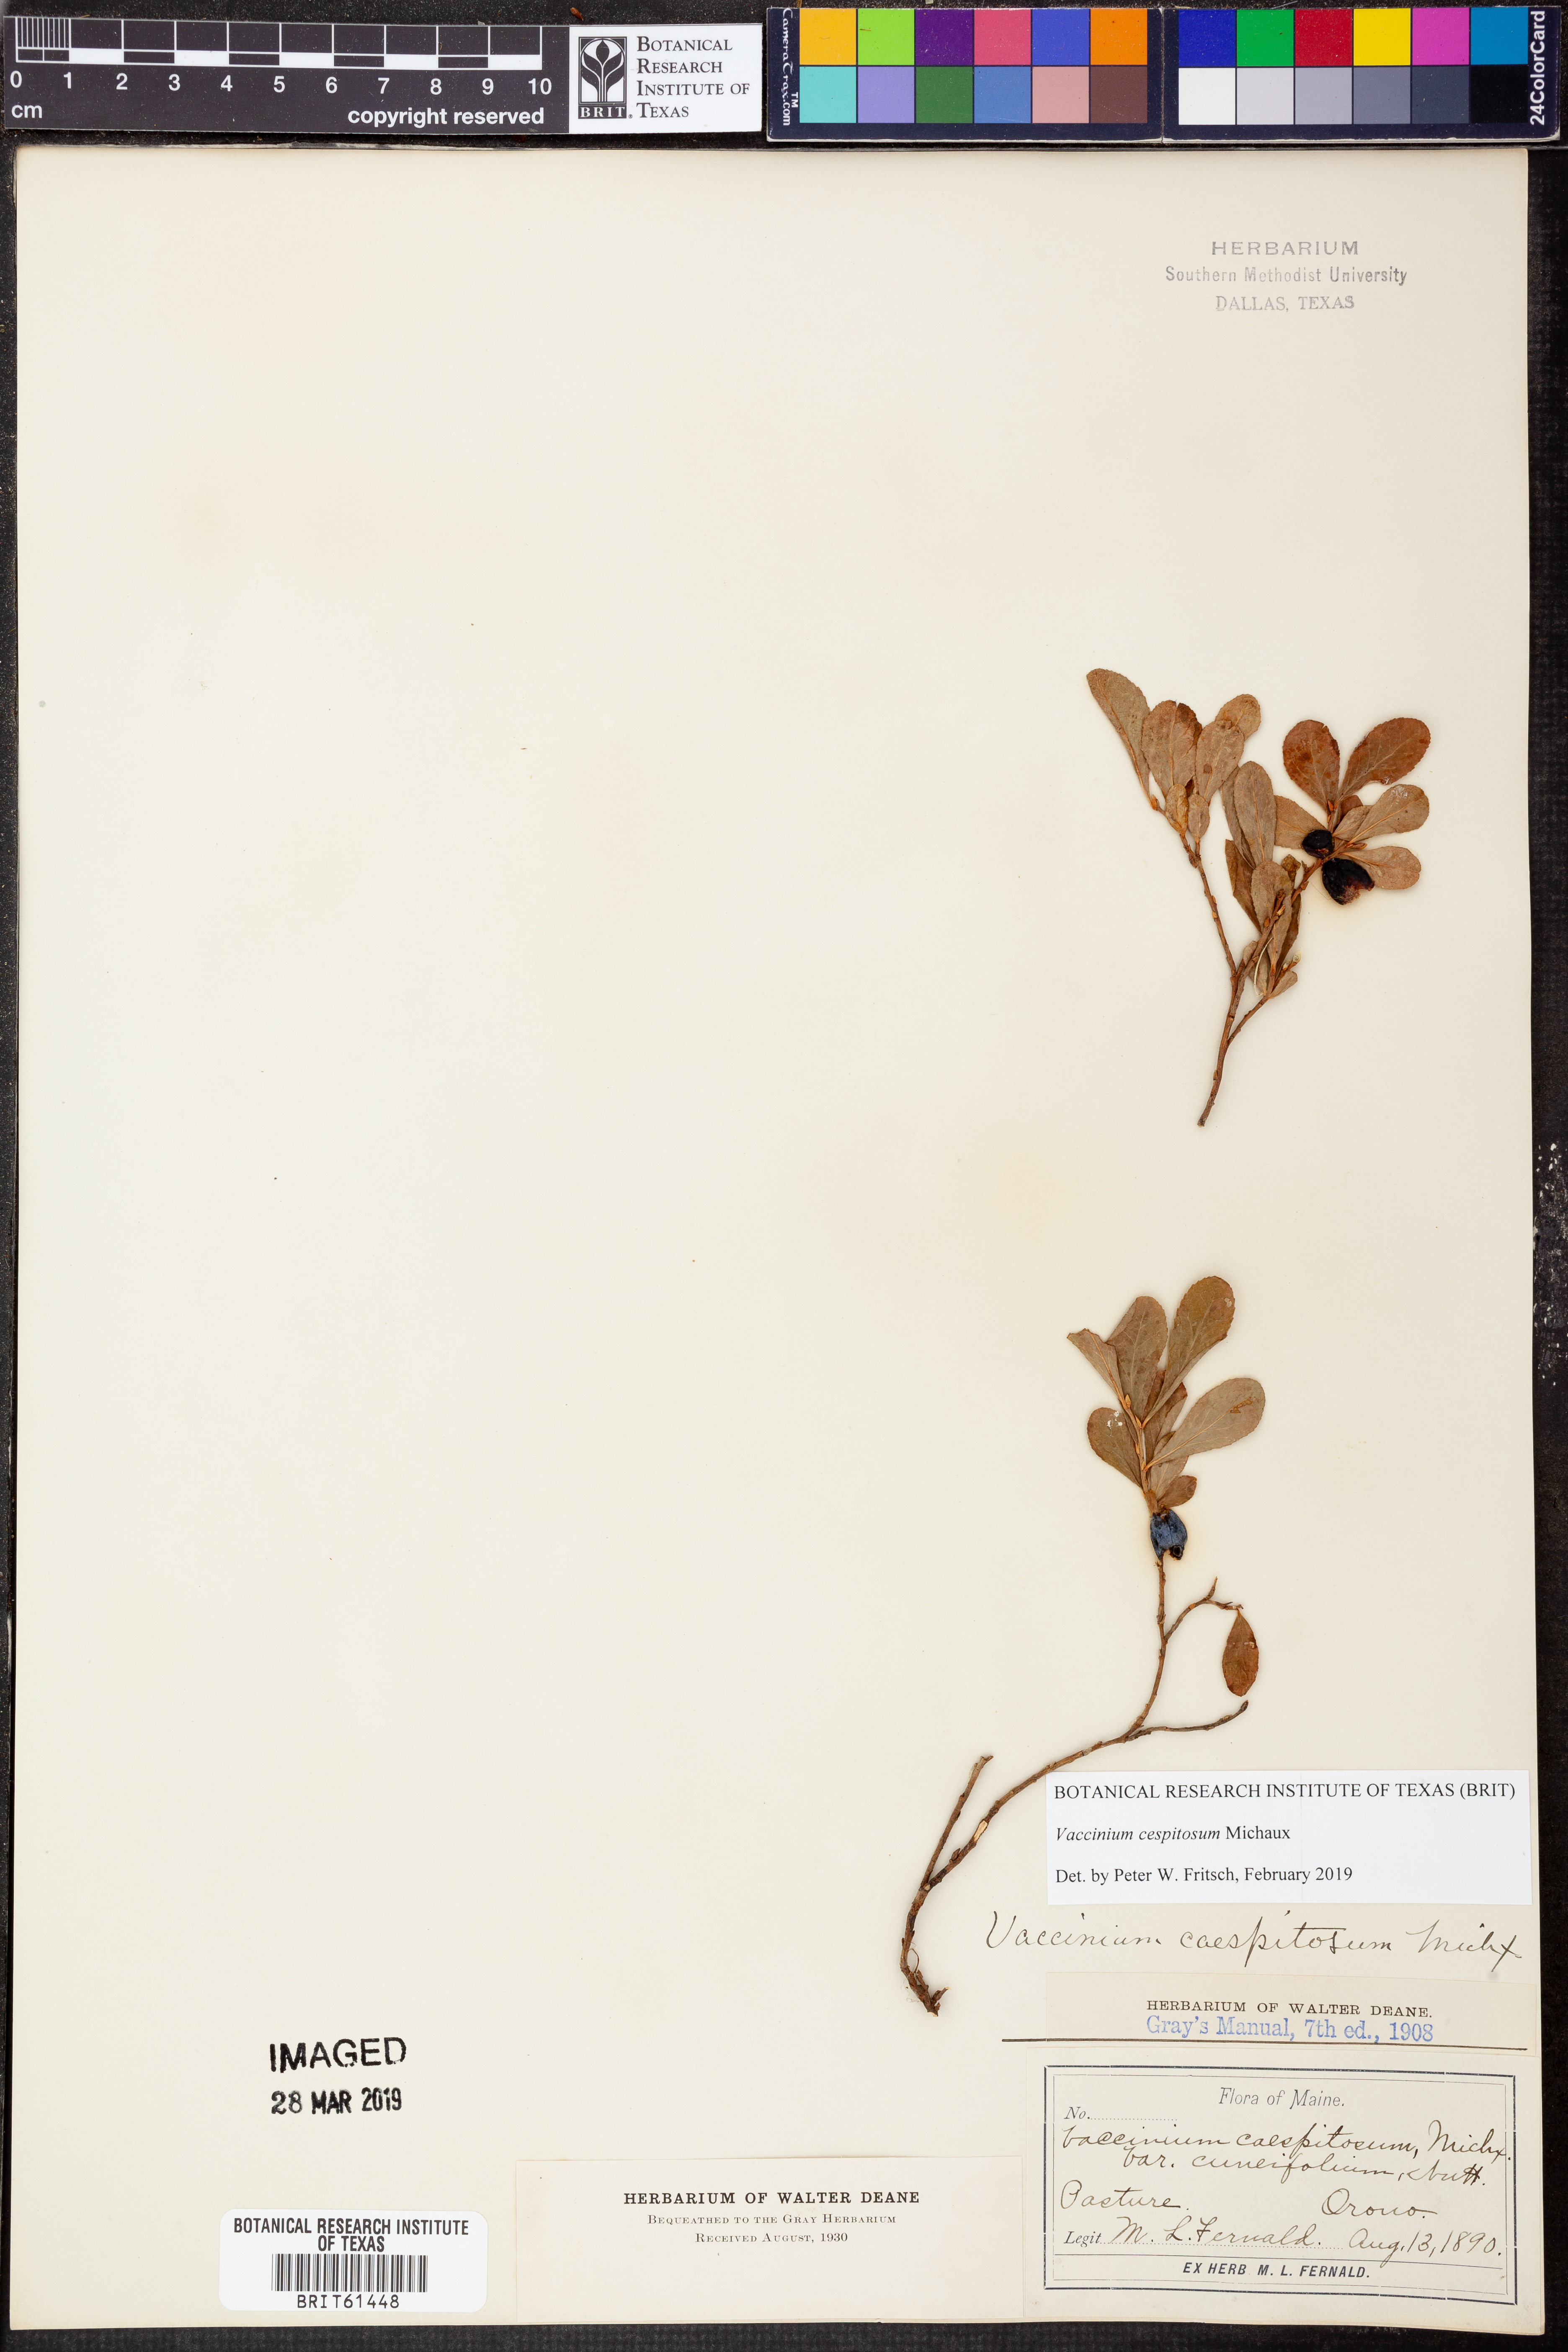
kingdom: Plantae
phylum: Tracheophyta
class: Magnoliopsida
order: Ericales
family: Ericaceae
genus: Vaccinium
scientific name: Vaccinium cespitosum
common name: Dwarf bilberry
